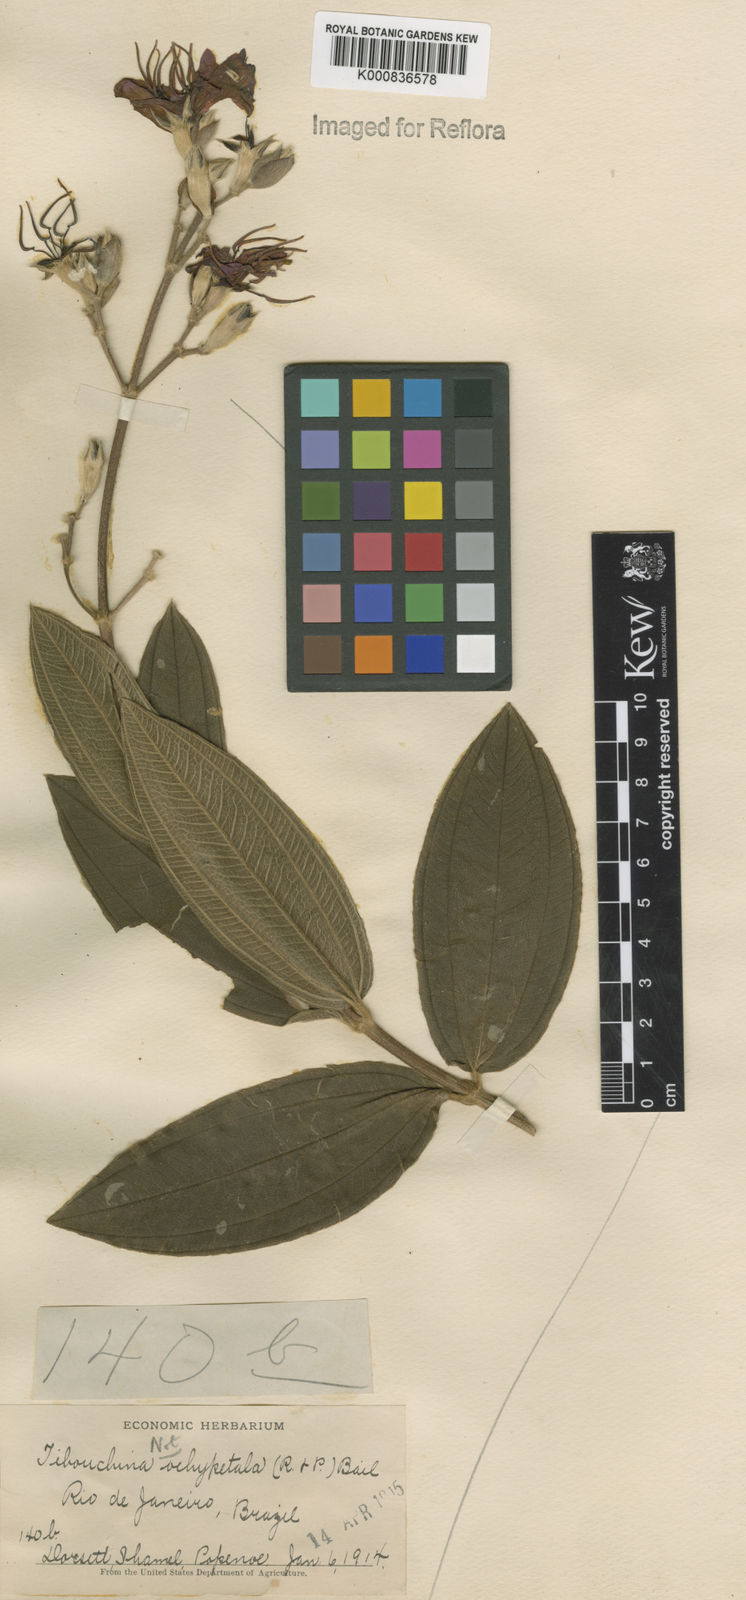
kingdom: Plantae
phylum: Tracheophyta
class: Magnoliopsida
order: Myrtales
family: Melastomataceae
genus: Pleroma
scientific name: Pleroma stenocarpum
